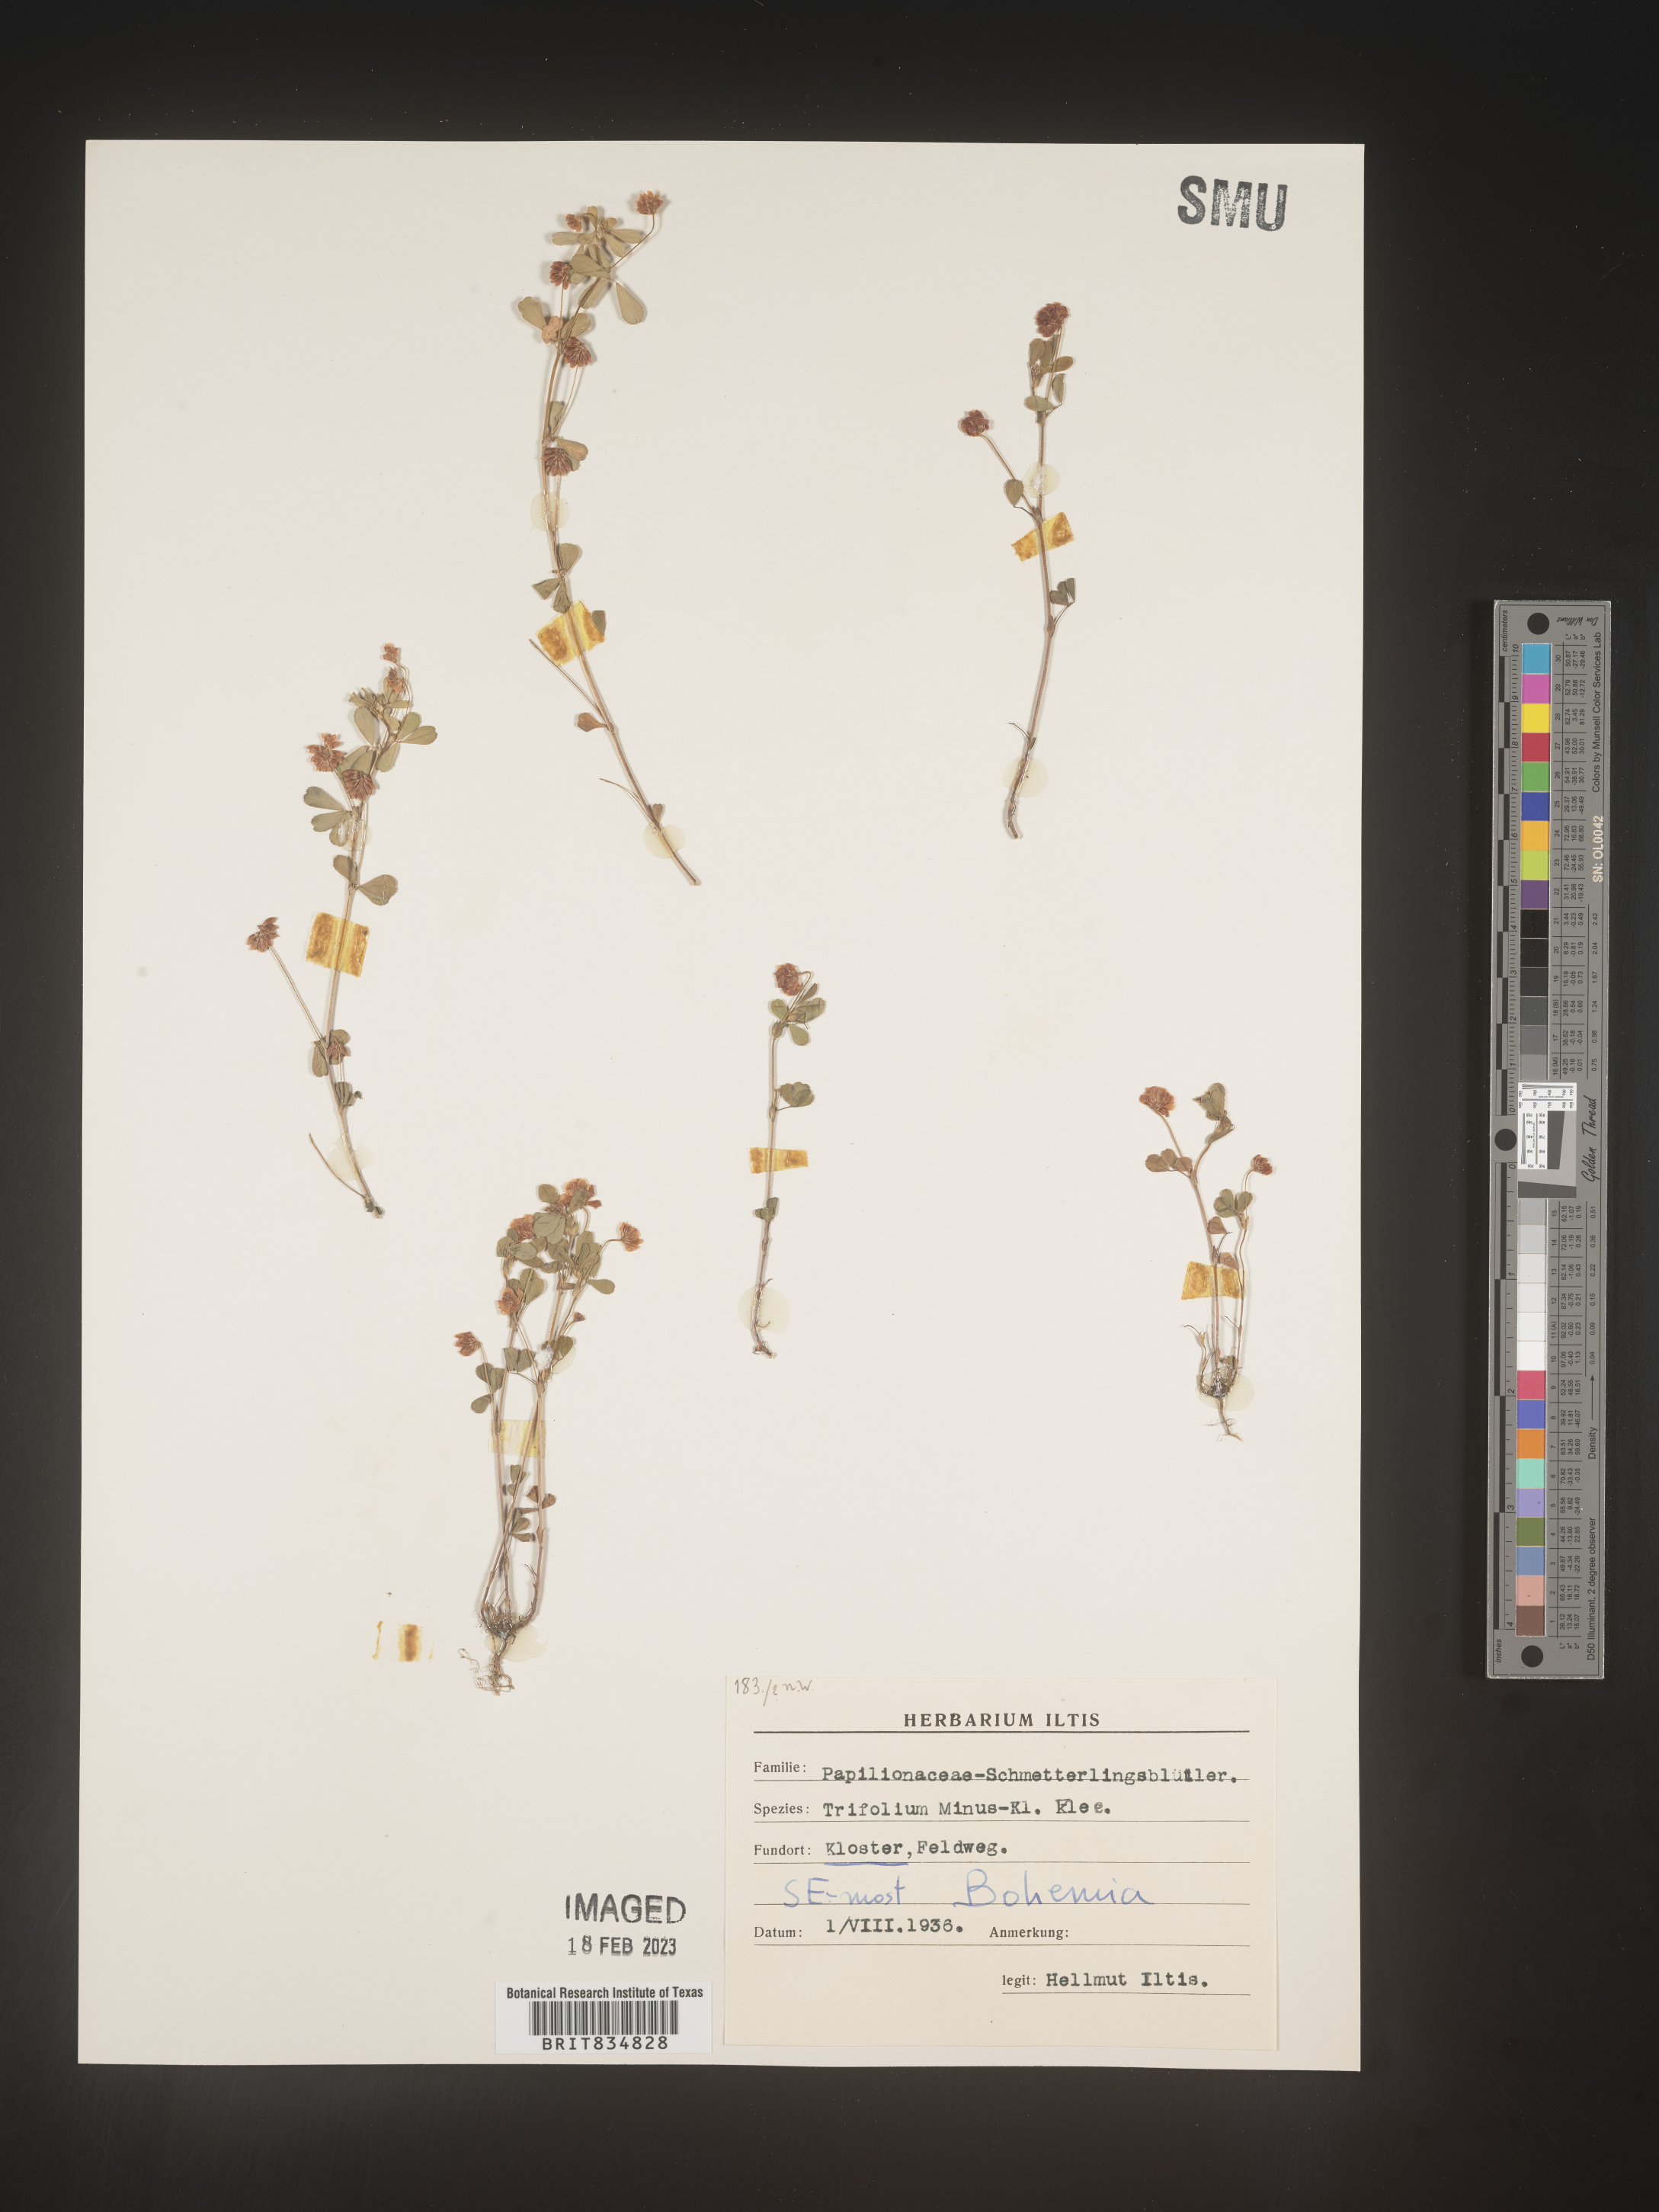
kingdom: Plantae
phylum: Tracheophyta
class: Magnoliopsida
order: Fabales
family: Fabaceae
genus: Trifolium
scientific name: Trifolium
